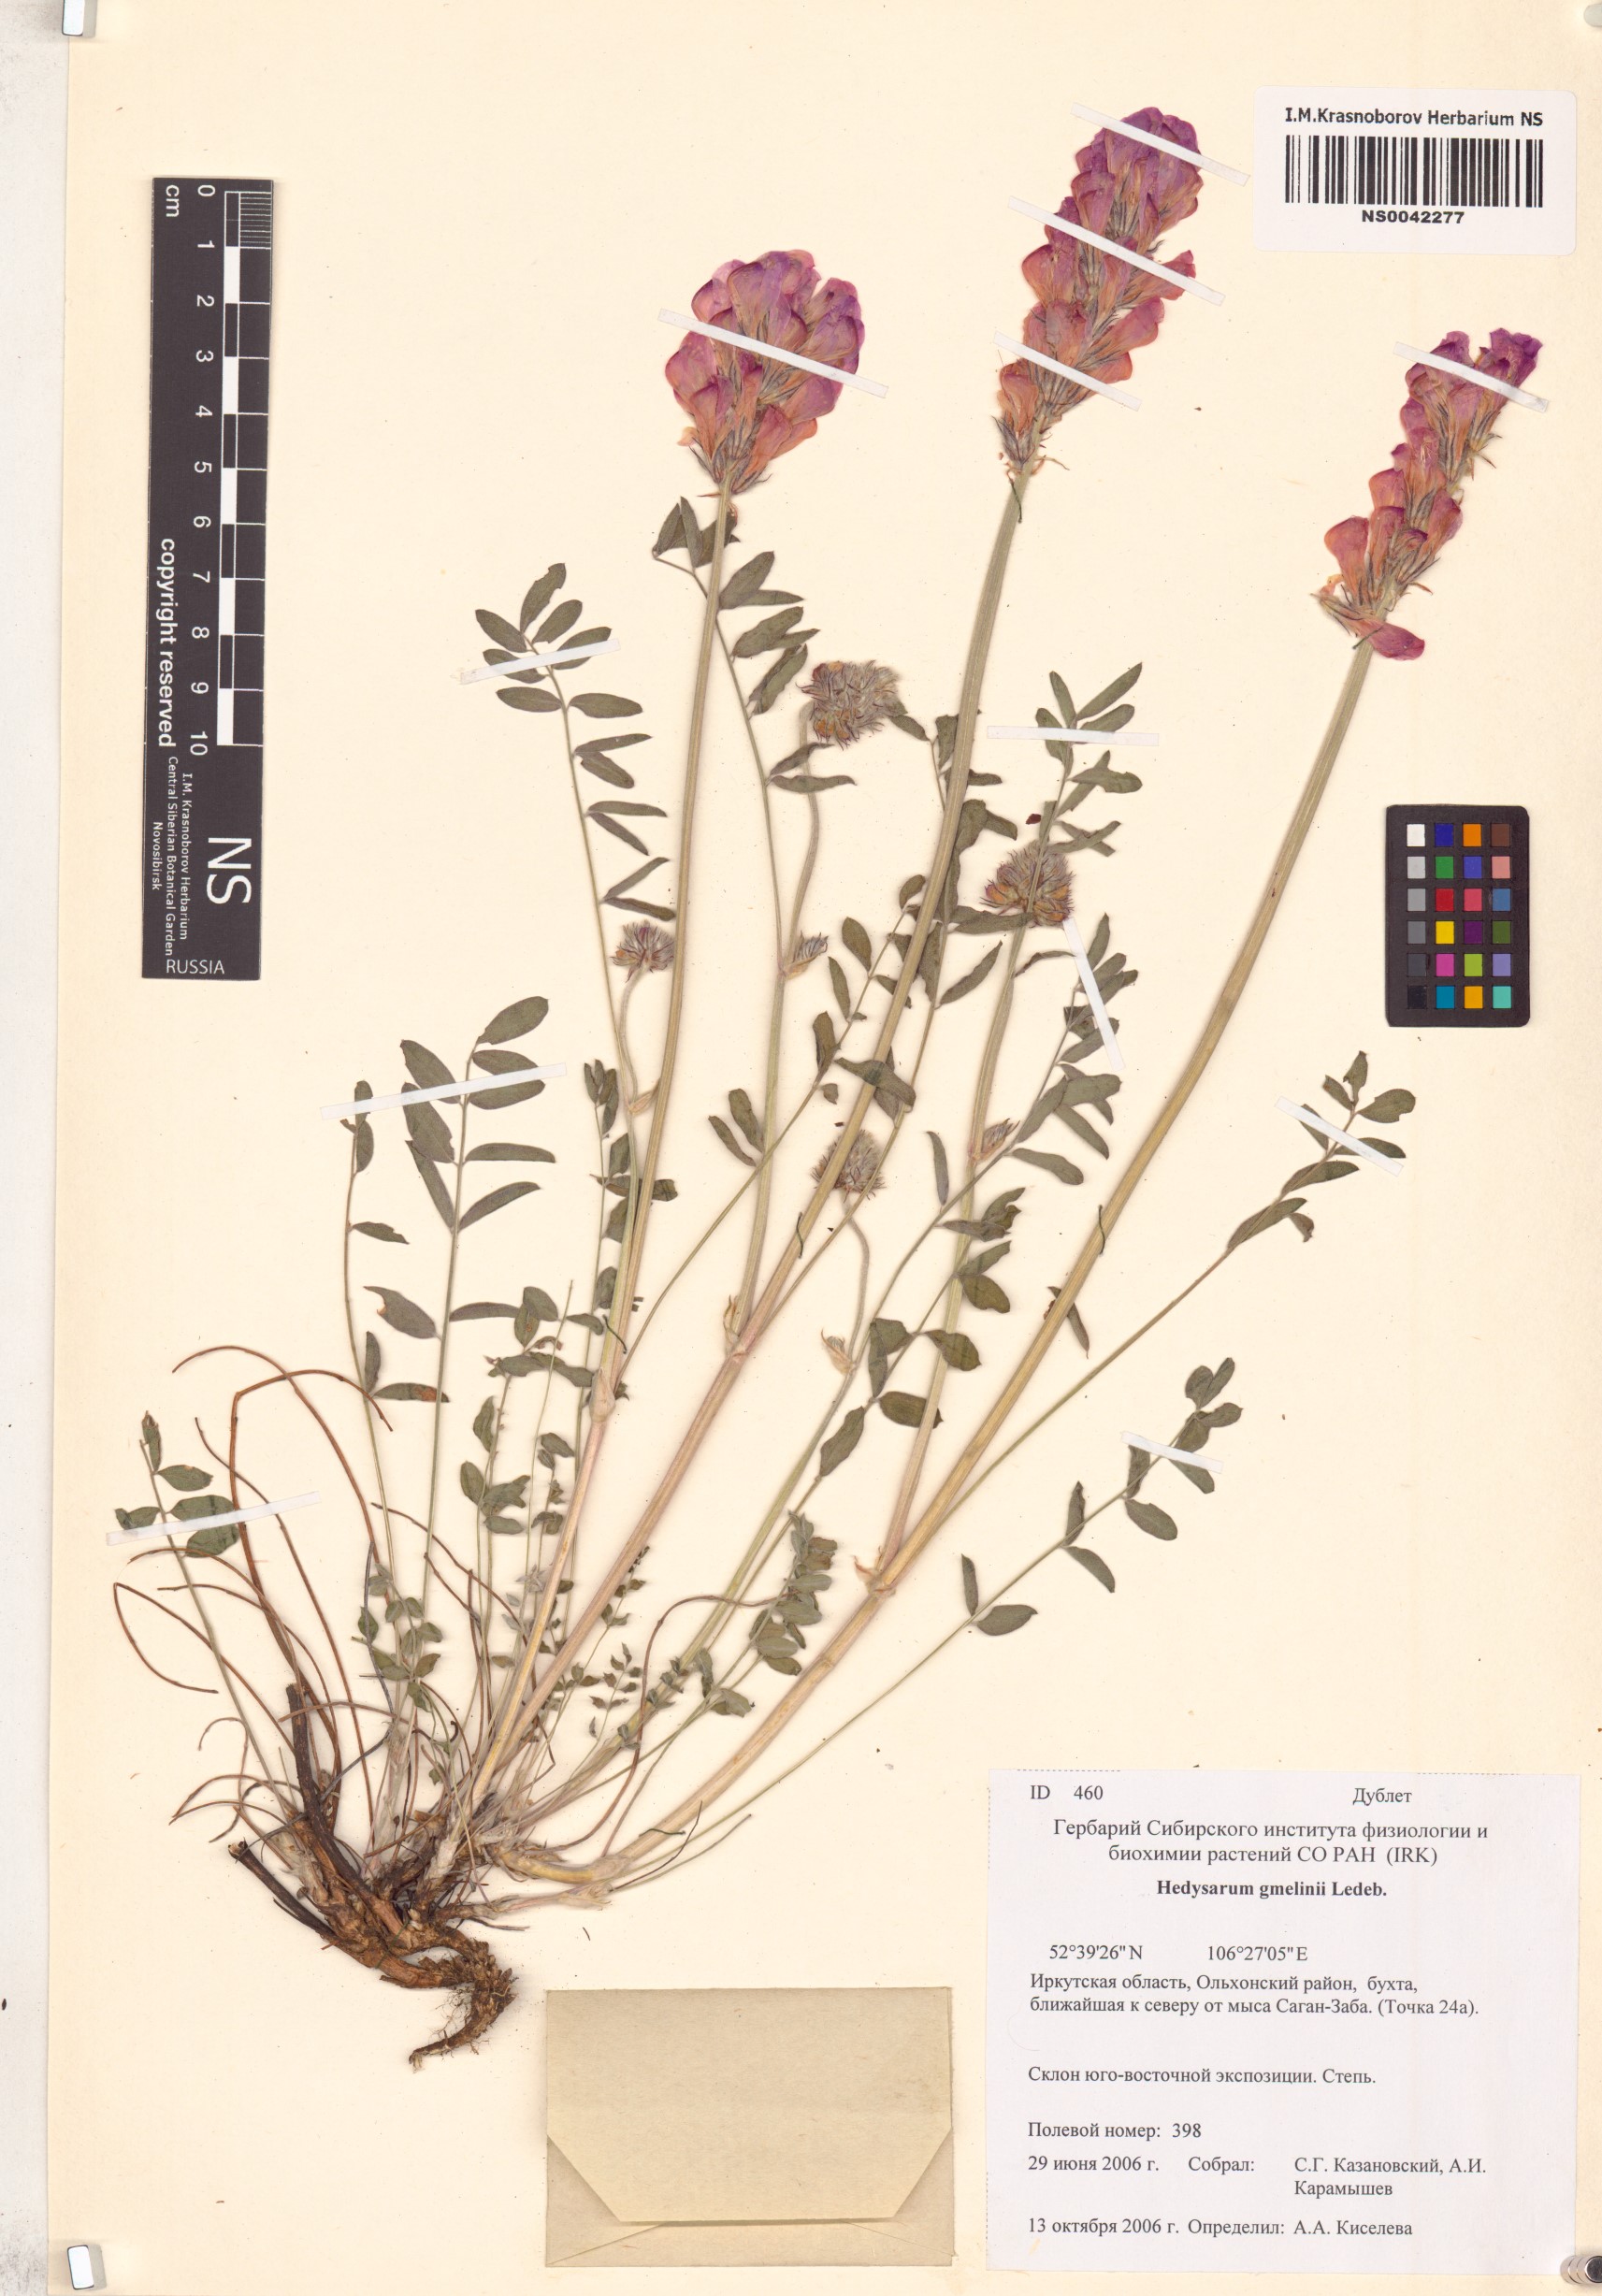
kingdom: Plantae
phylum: Tracheophyta
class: Magnoliopsida
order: Fabales
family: Fabaceae
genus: Hedysarum
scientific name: Hedysarum gmelinii
